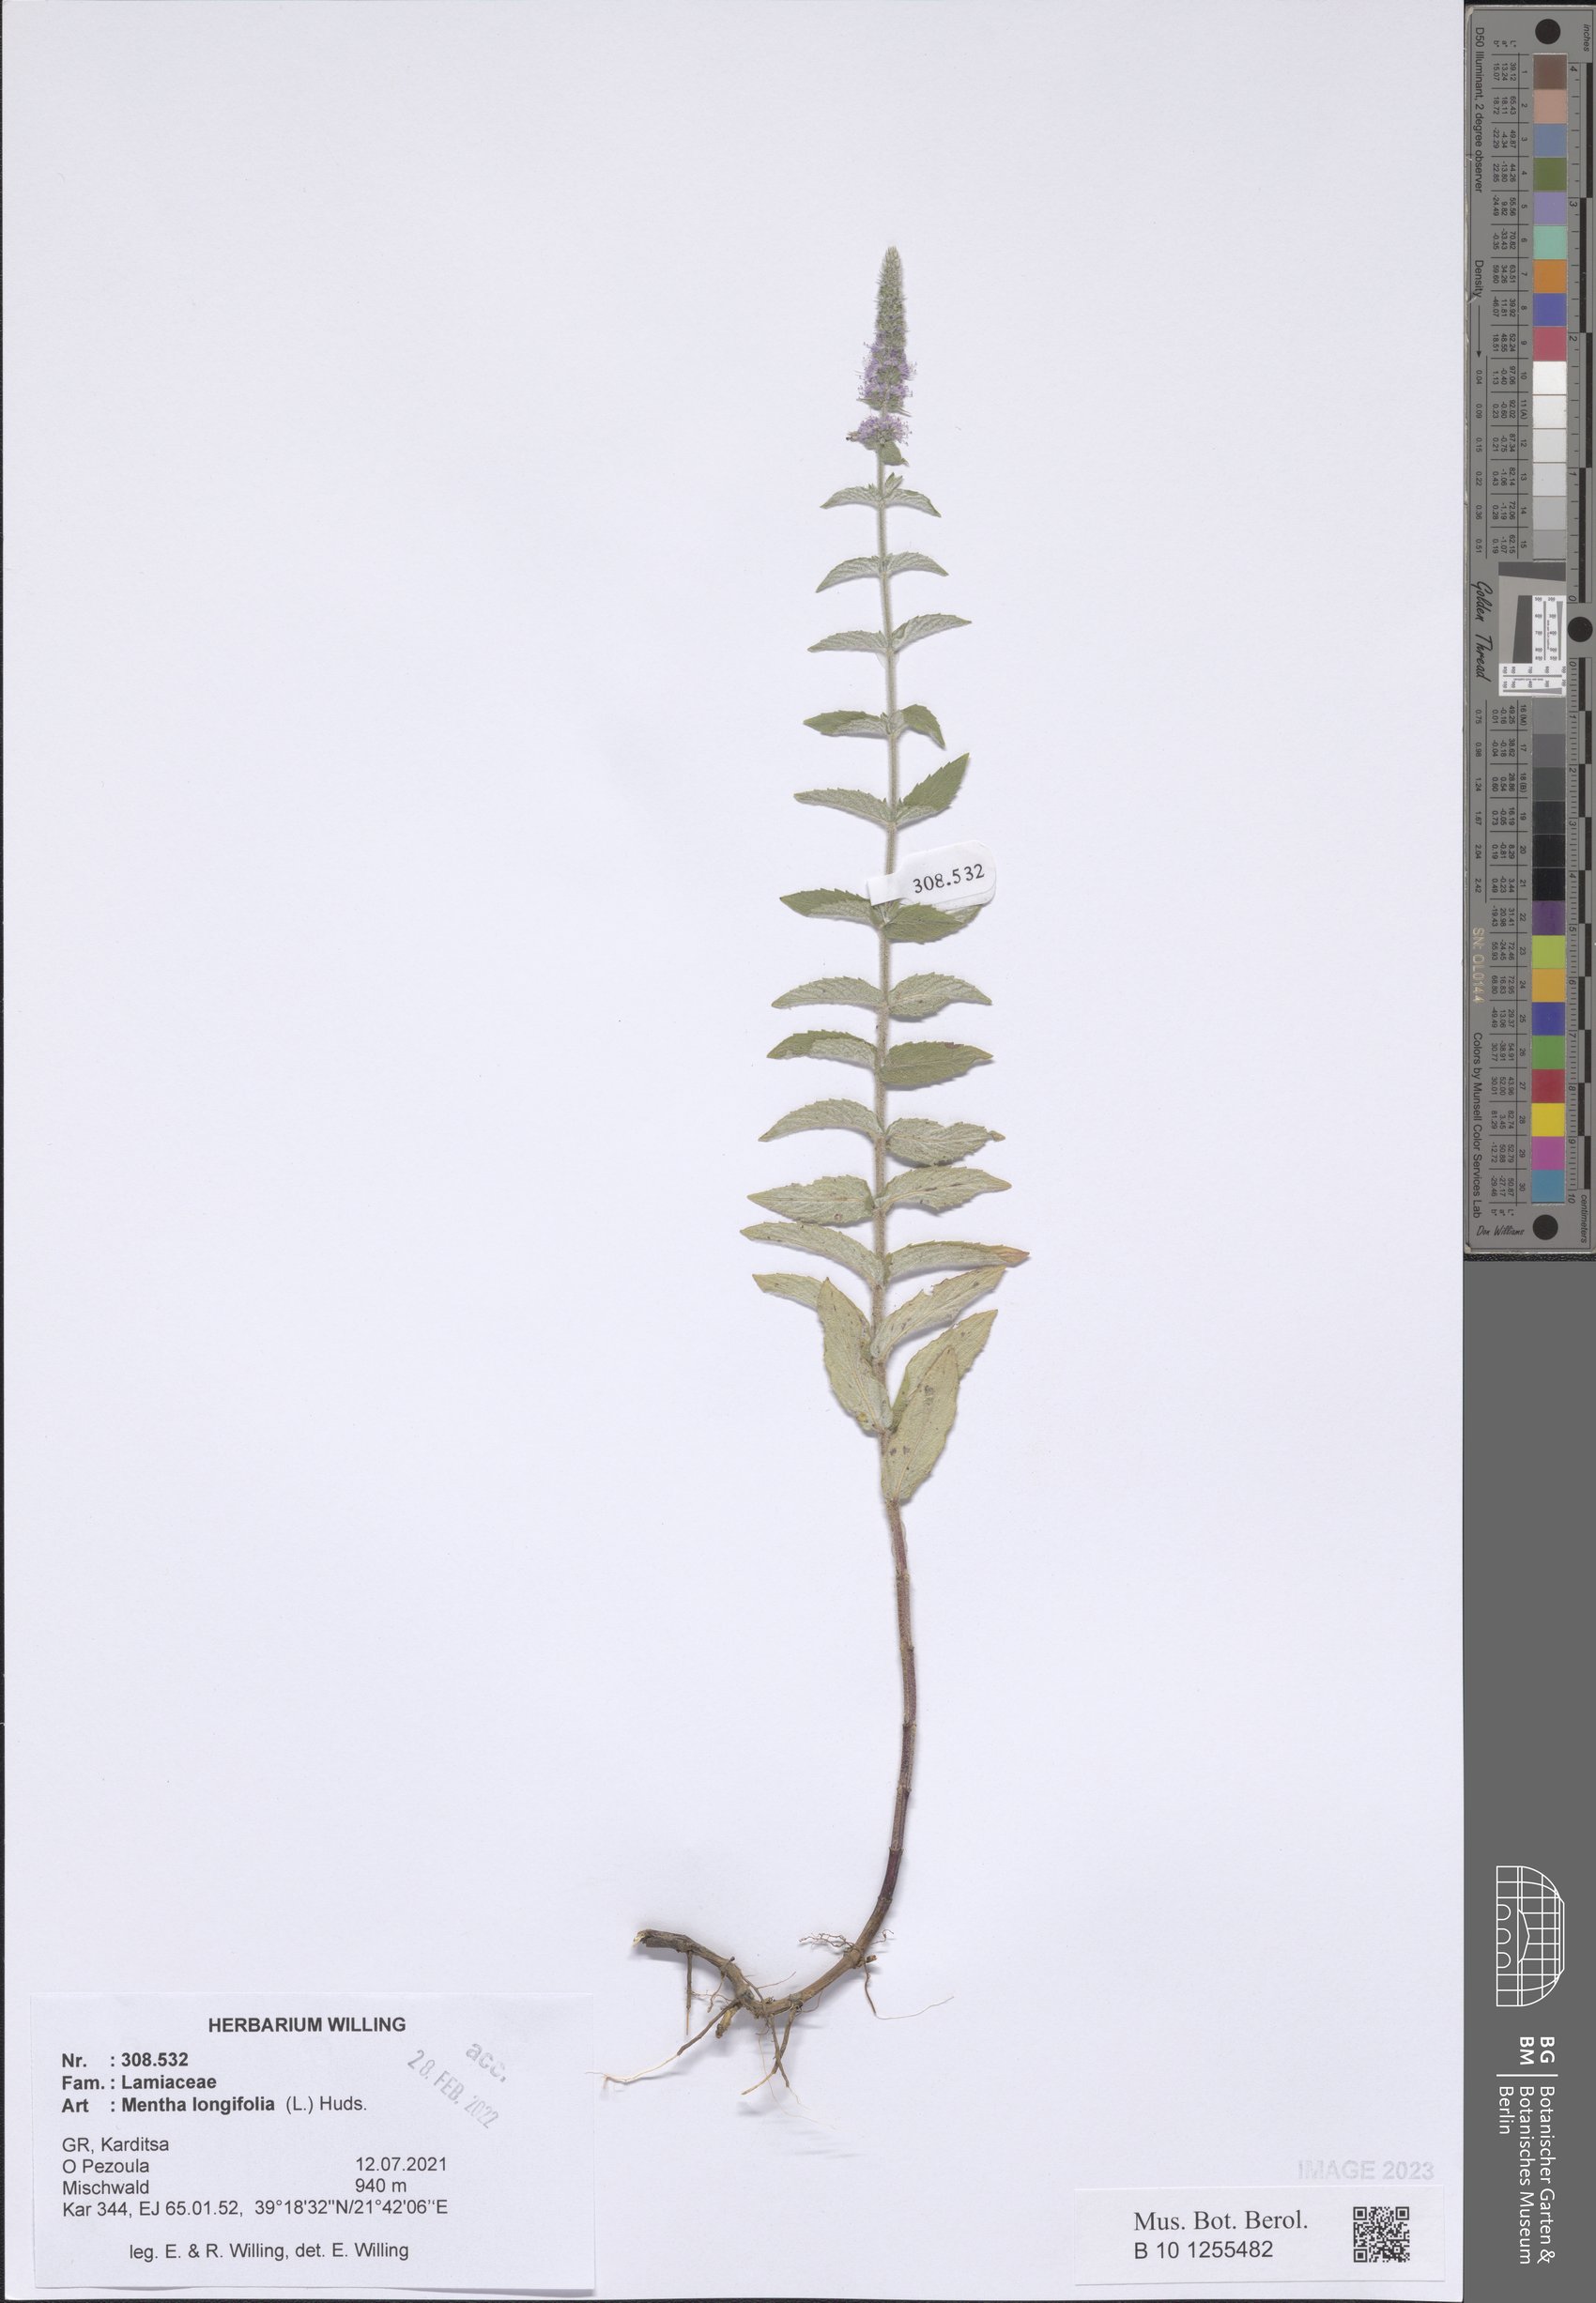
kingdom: Plantae
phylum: Tracheophyta
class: Magnoliopsida
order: Lamiales
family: Lamiaceae
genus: Mentha
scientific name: Mentha longifolia
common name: Horse mint
